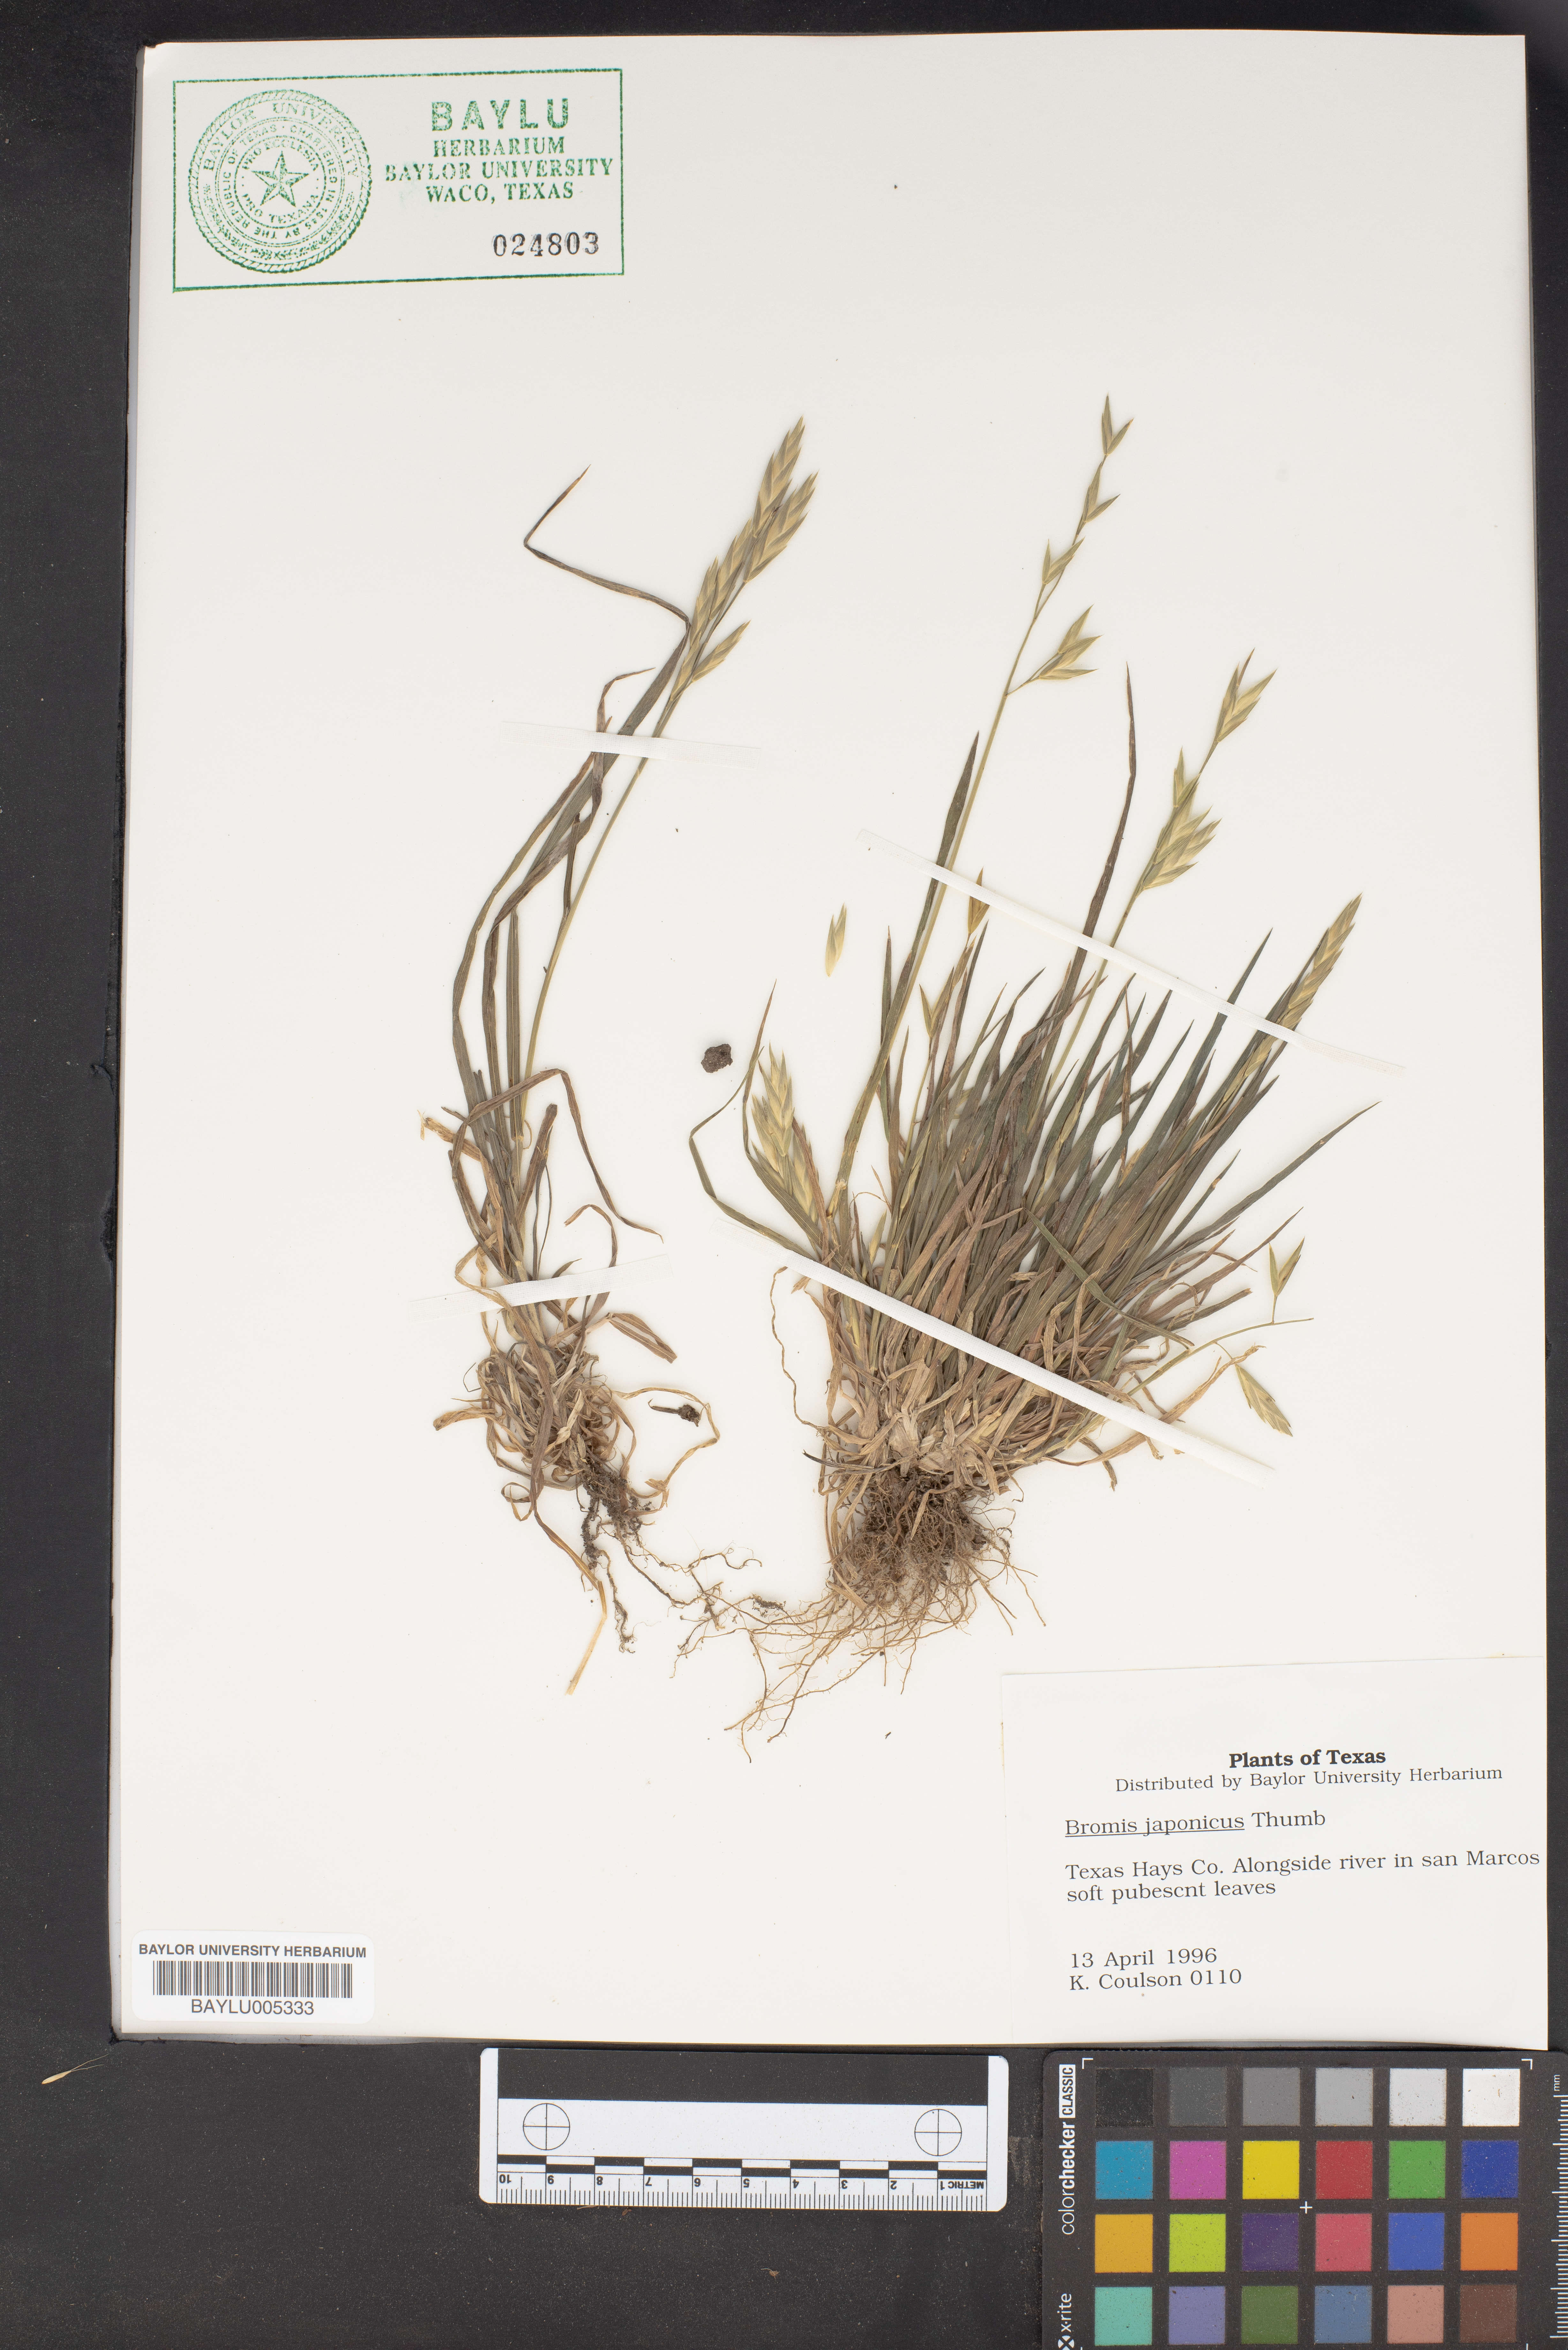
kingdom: Plantae
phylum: Tracheophyta
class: Liliopsida
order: Poales
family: Poaceae
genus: Bromus
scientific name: Bromus japonicus
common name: Japanese brome
